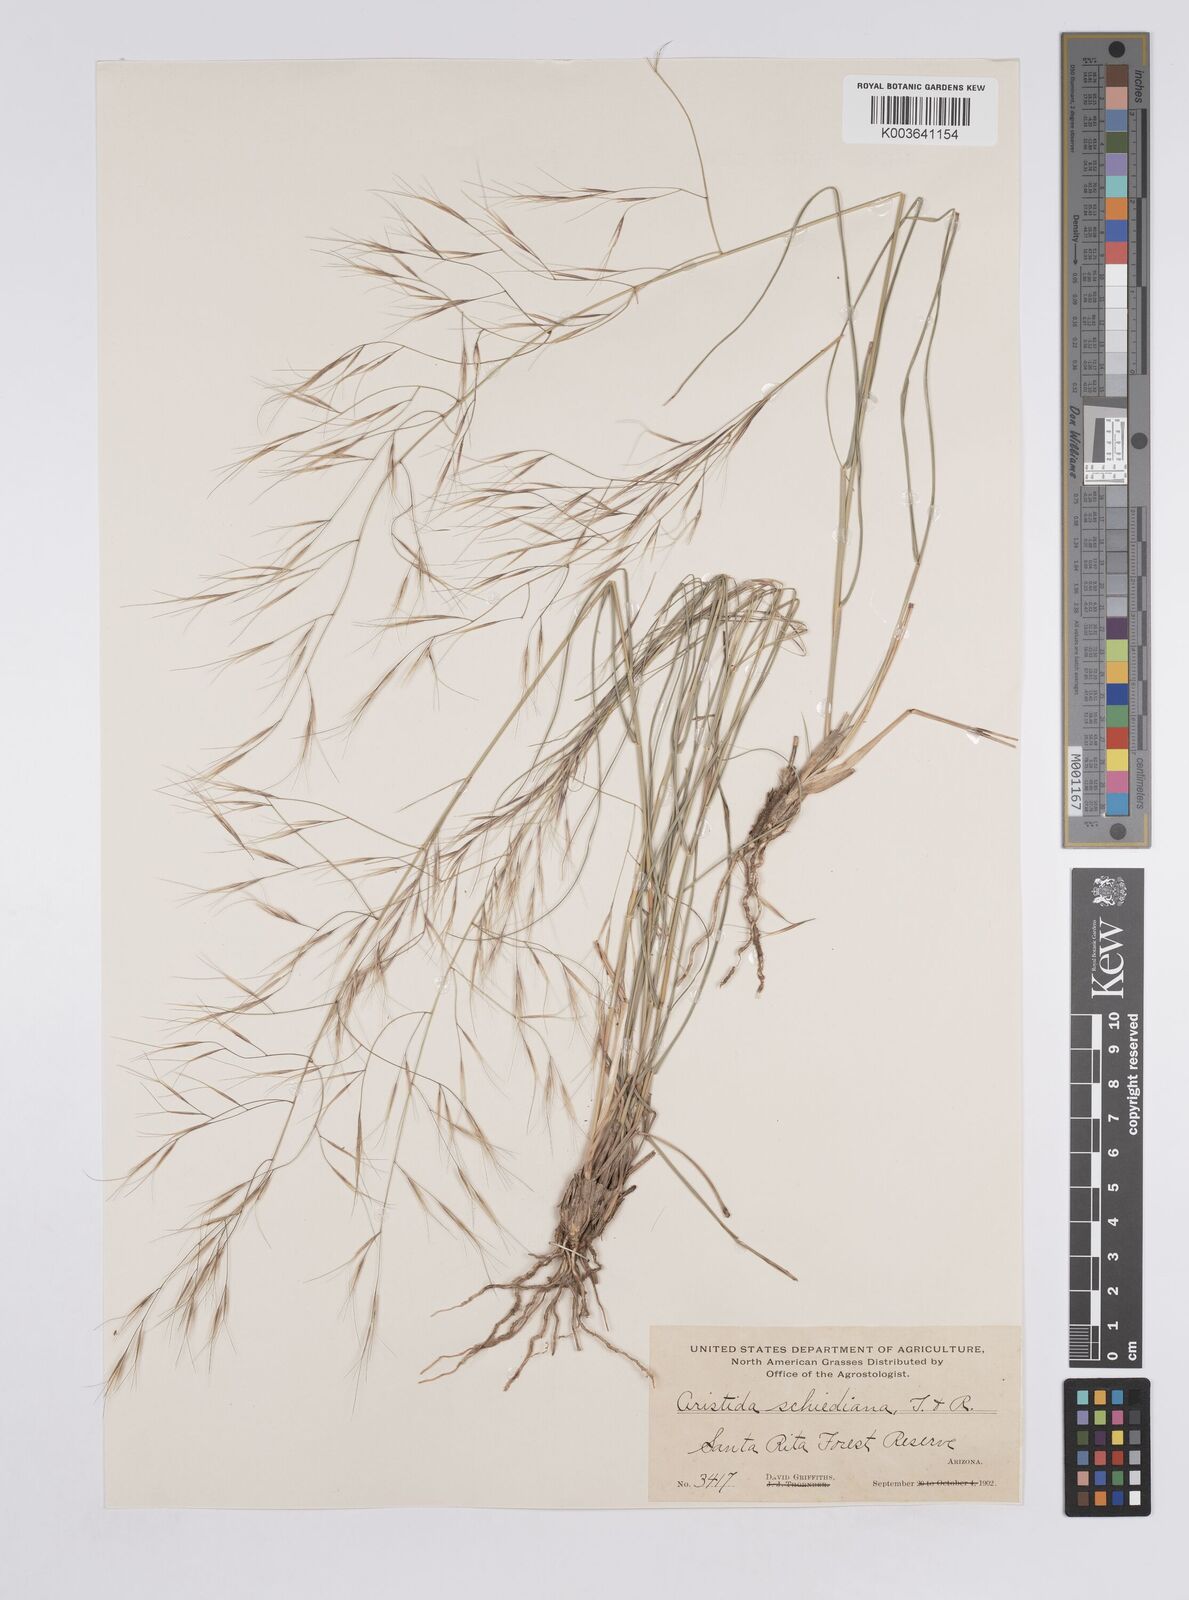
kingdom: Plantae
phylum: Tracheophyta
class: Liliopsida
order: Poales
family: Poaceae
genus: Aristida
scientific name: Aristida
